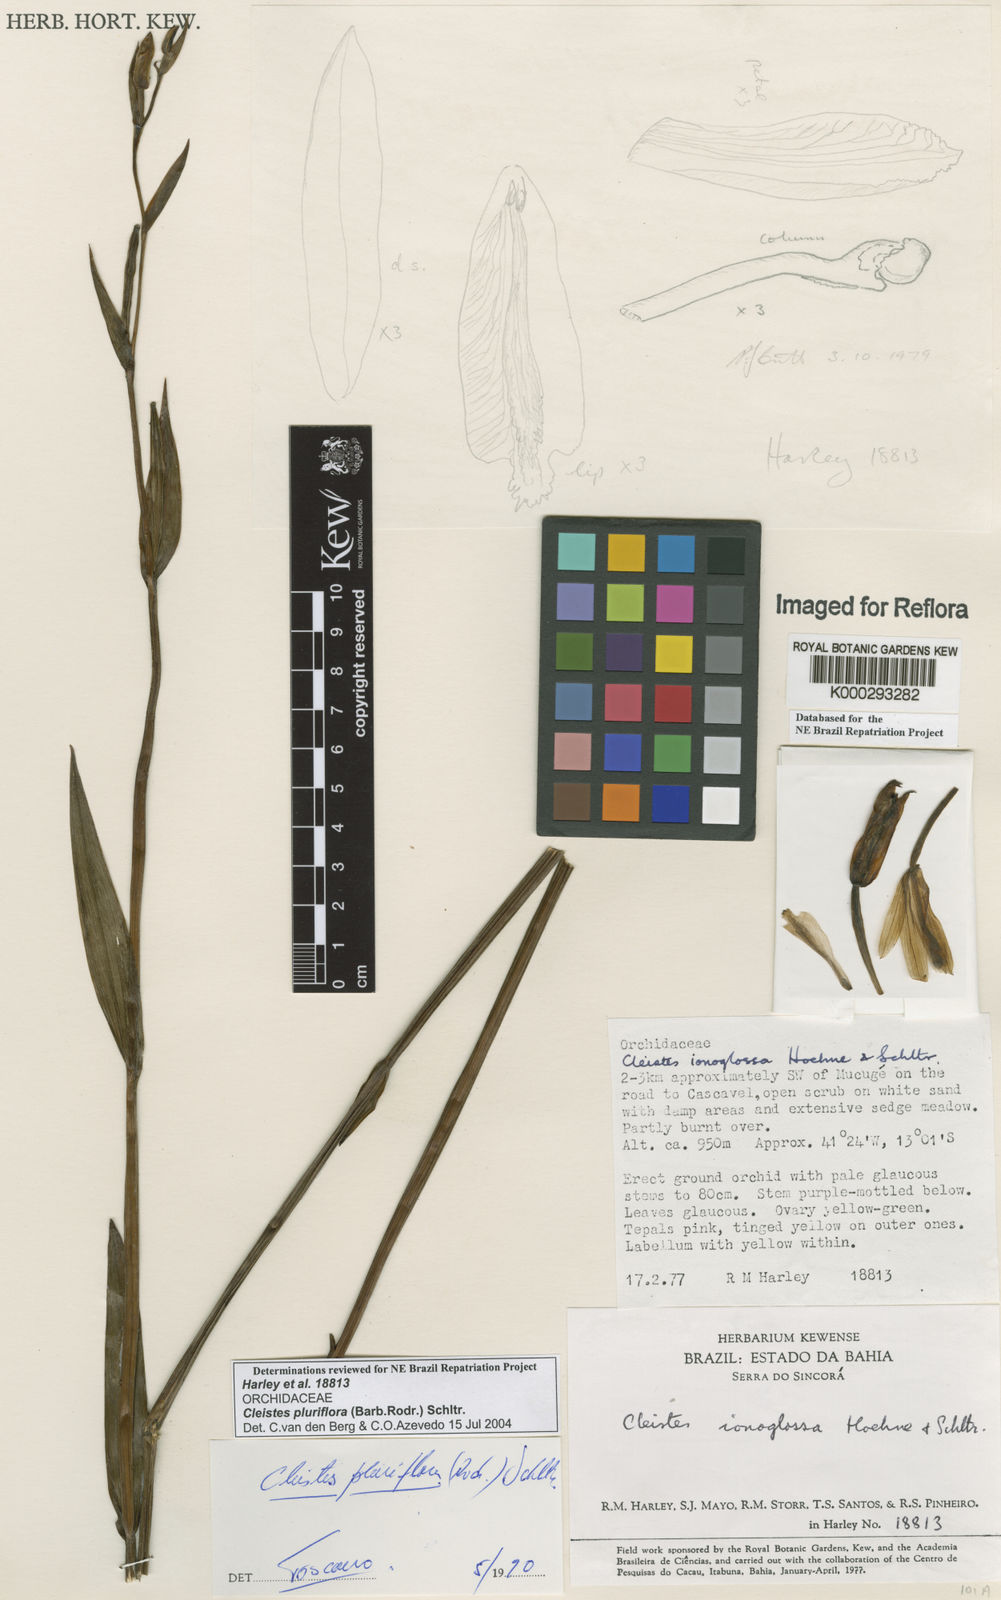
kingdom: Plantae
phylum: Tracheophyta
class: Liliopsida
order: Asparagales
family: Orchidaceae
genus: Cleistes
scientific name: Cleistes moritzii
